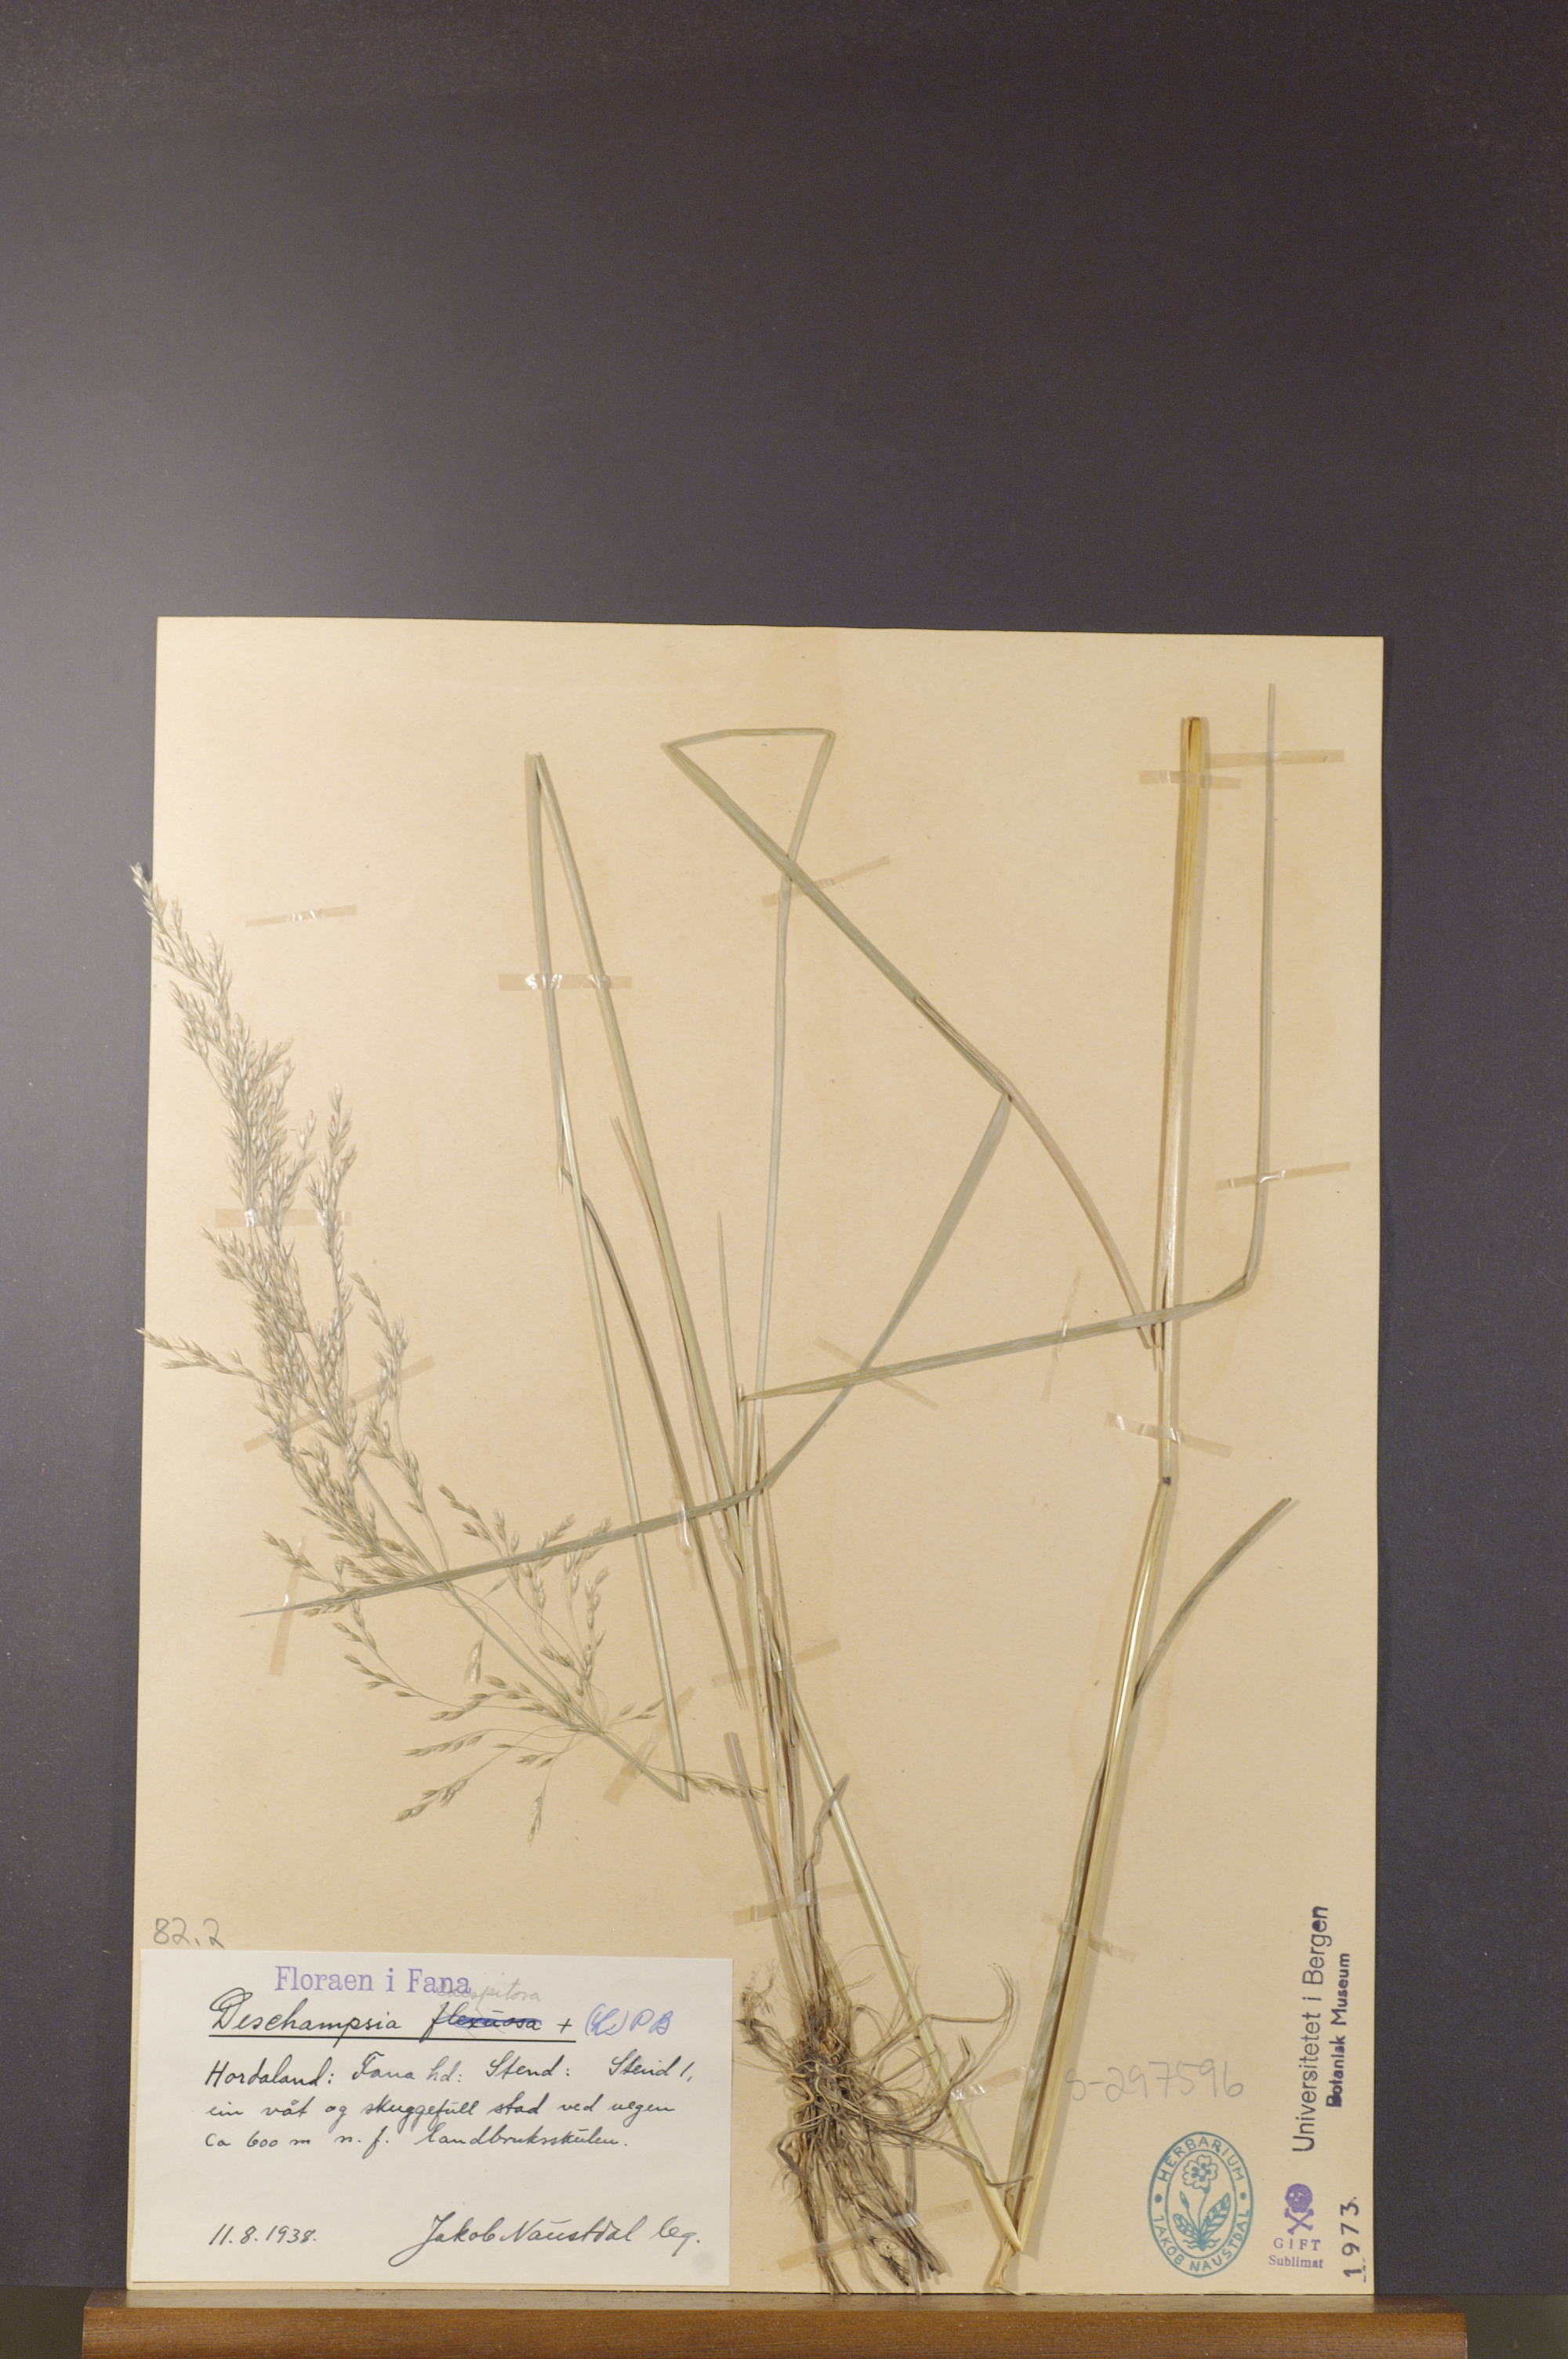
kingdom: Plantae
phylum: Tracheophyta
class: Liliopsida
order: Poales
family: Poaceae
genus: Deschampsia
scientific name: Deschampsia cespitosa
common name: Tufted hair-grass
